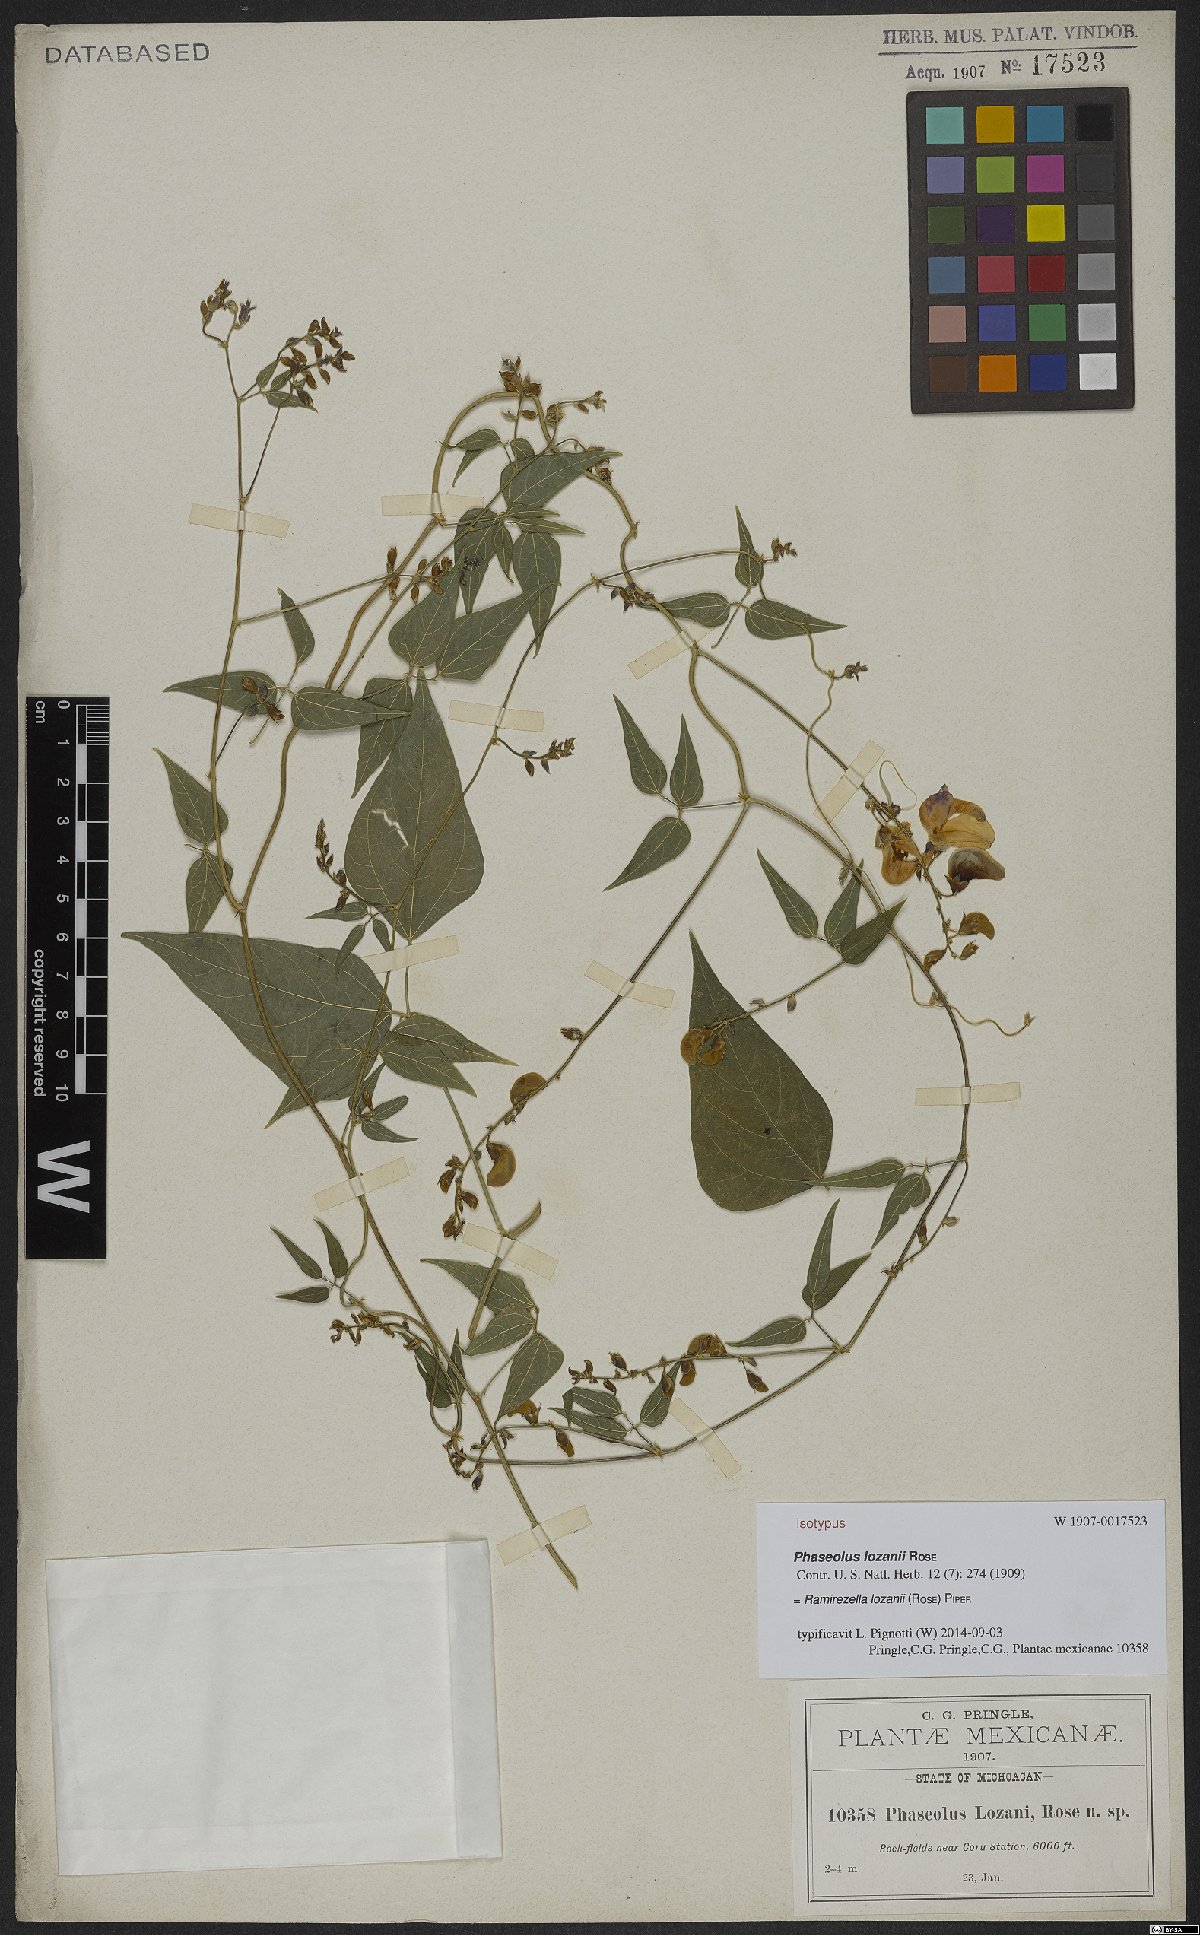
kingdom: Plantae
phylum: Tracheophyta
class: Magnoliopsida
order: Fabales
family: Fabaceae
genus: Ramirezella
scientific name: Ramirezella lozanii
